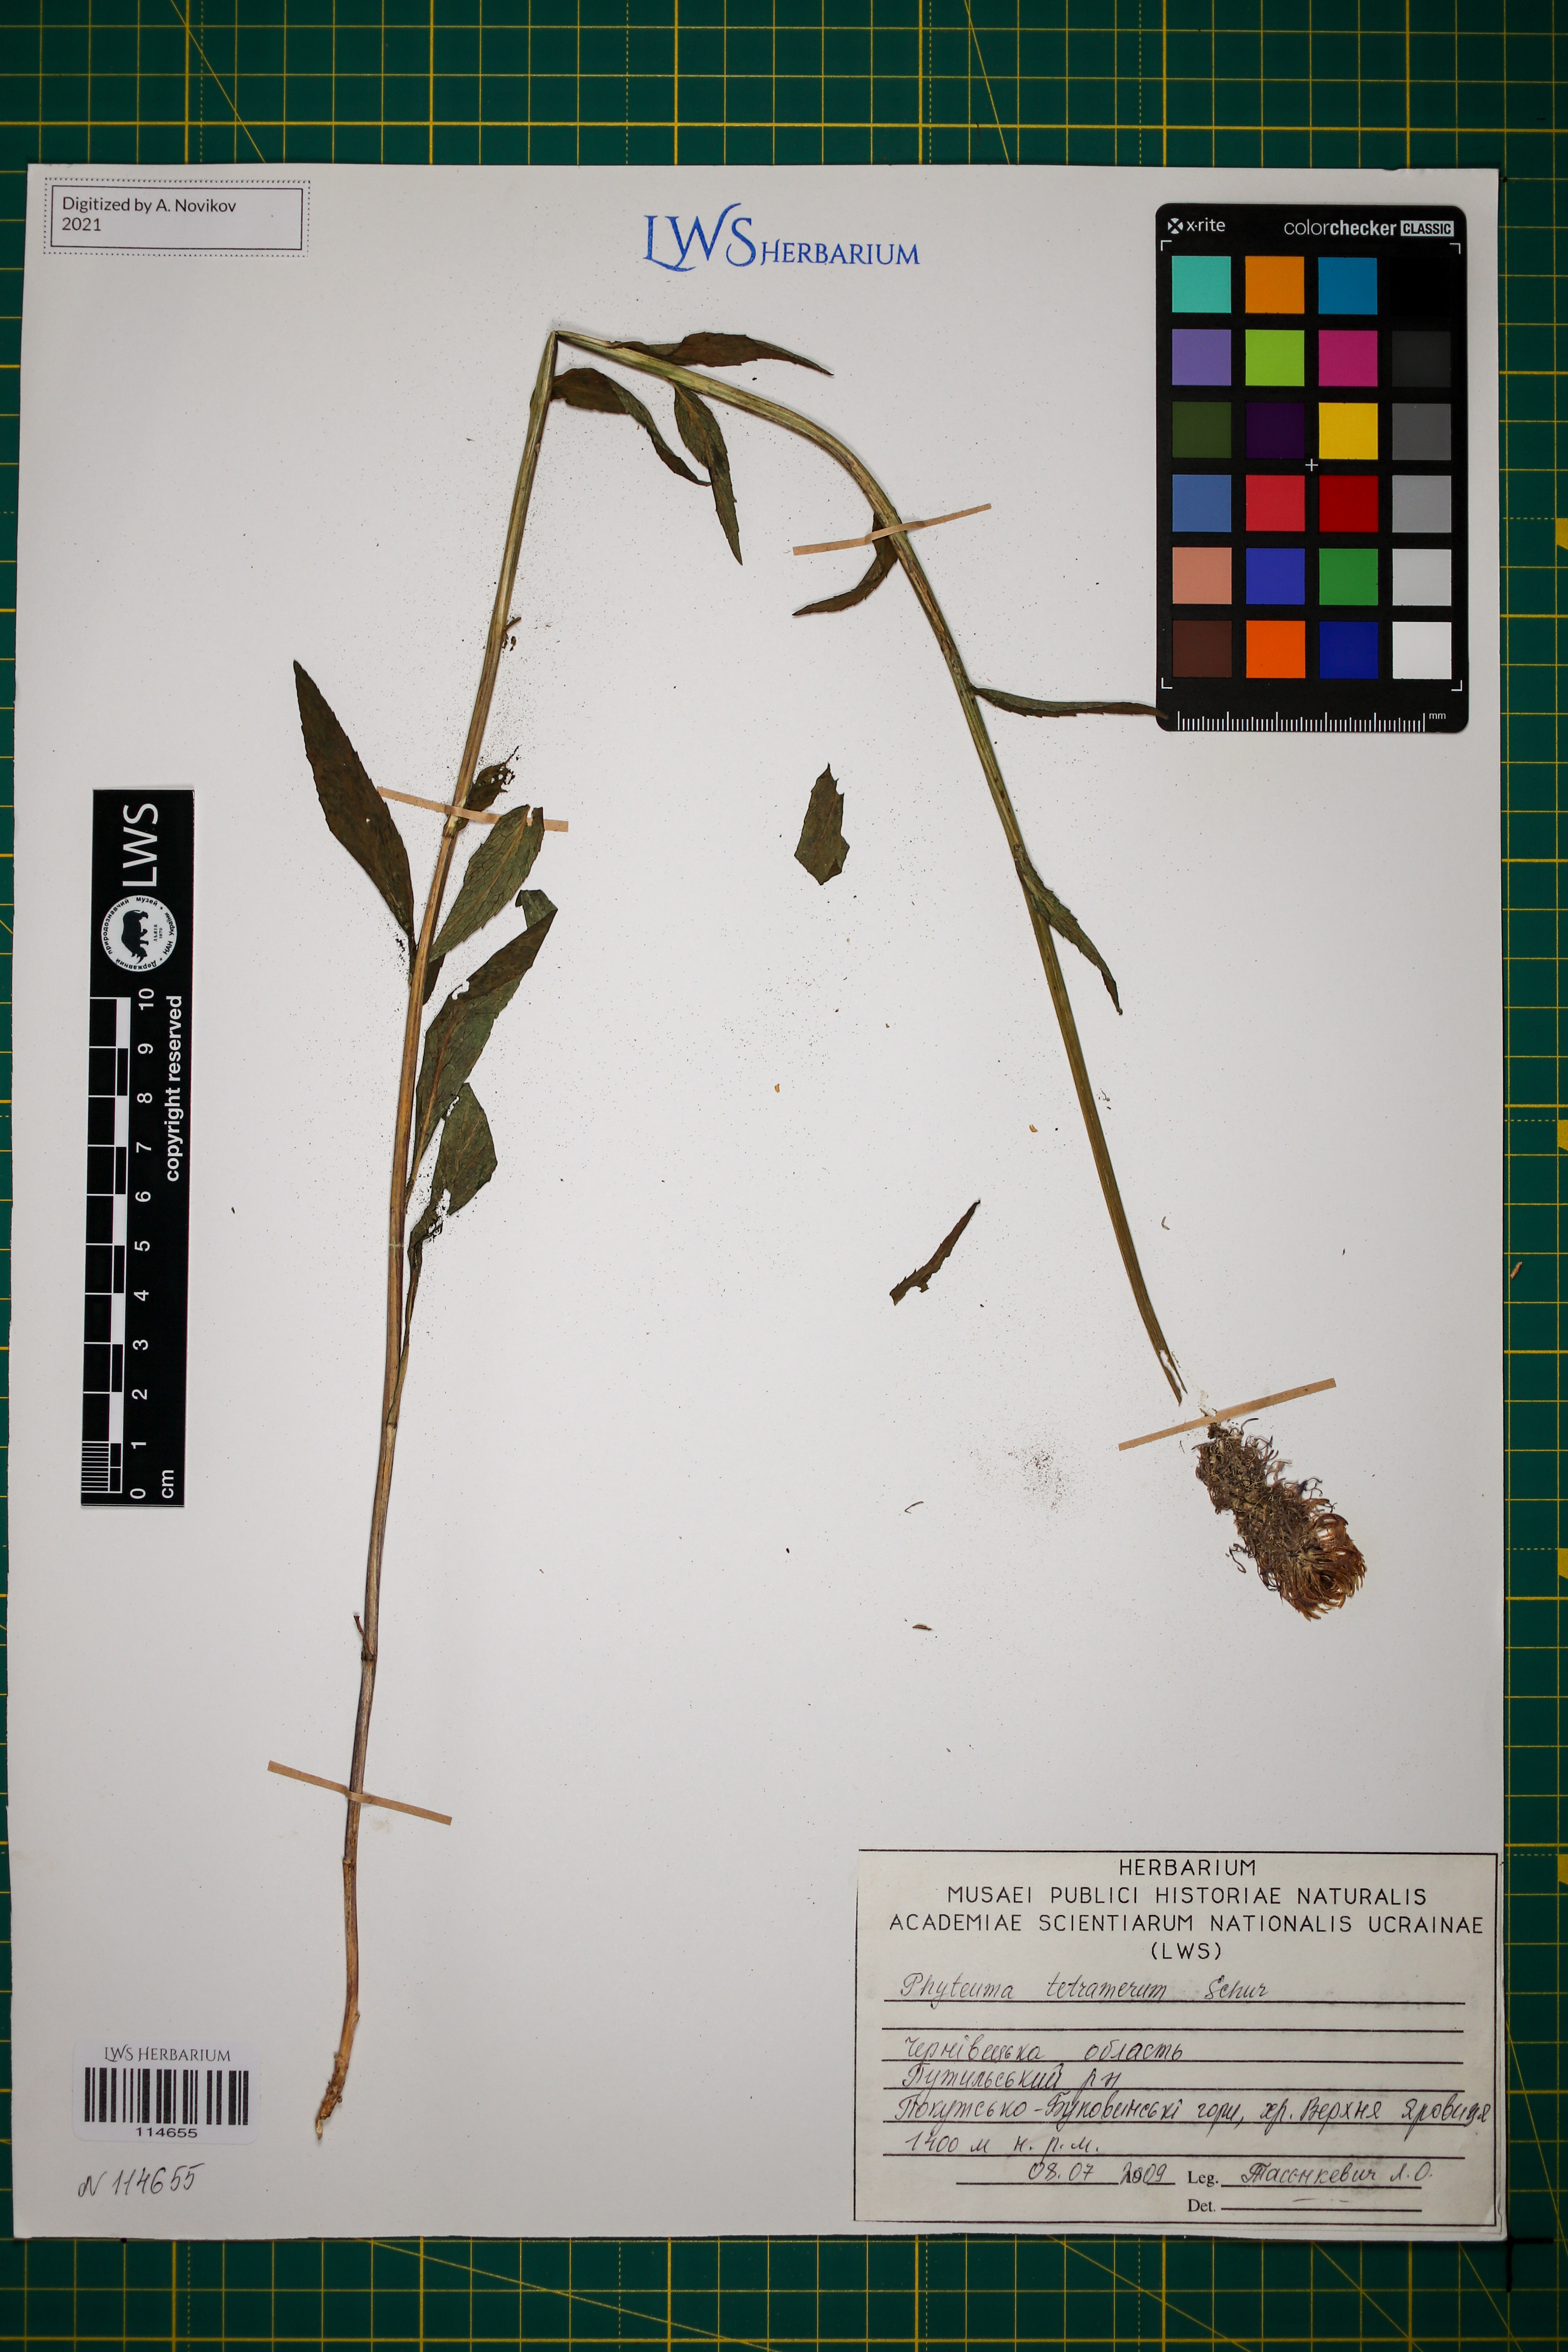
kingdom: Plantae
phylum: Tracheophyta
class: Magnoliopsida
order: Asterales
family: Campanulaceae
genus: Phyteuma
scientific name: Phyteuma tetramerum
